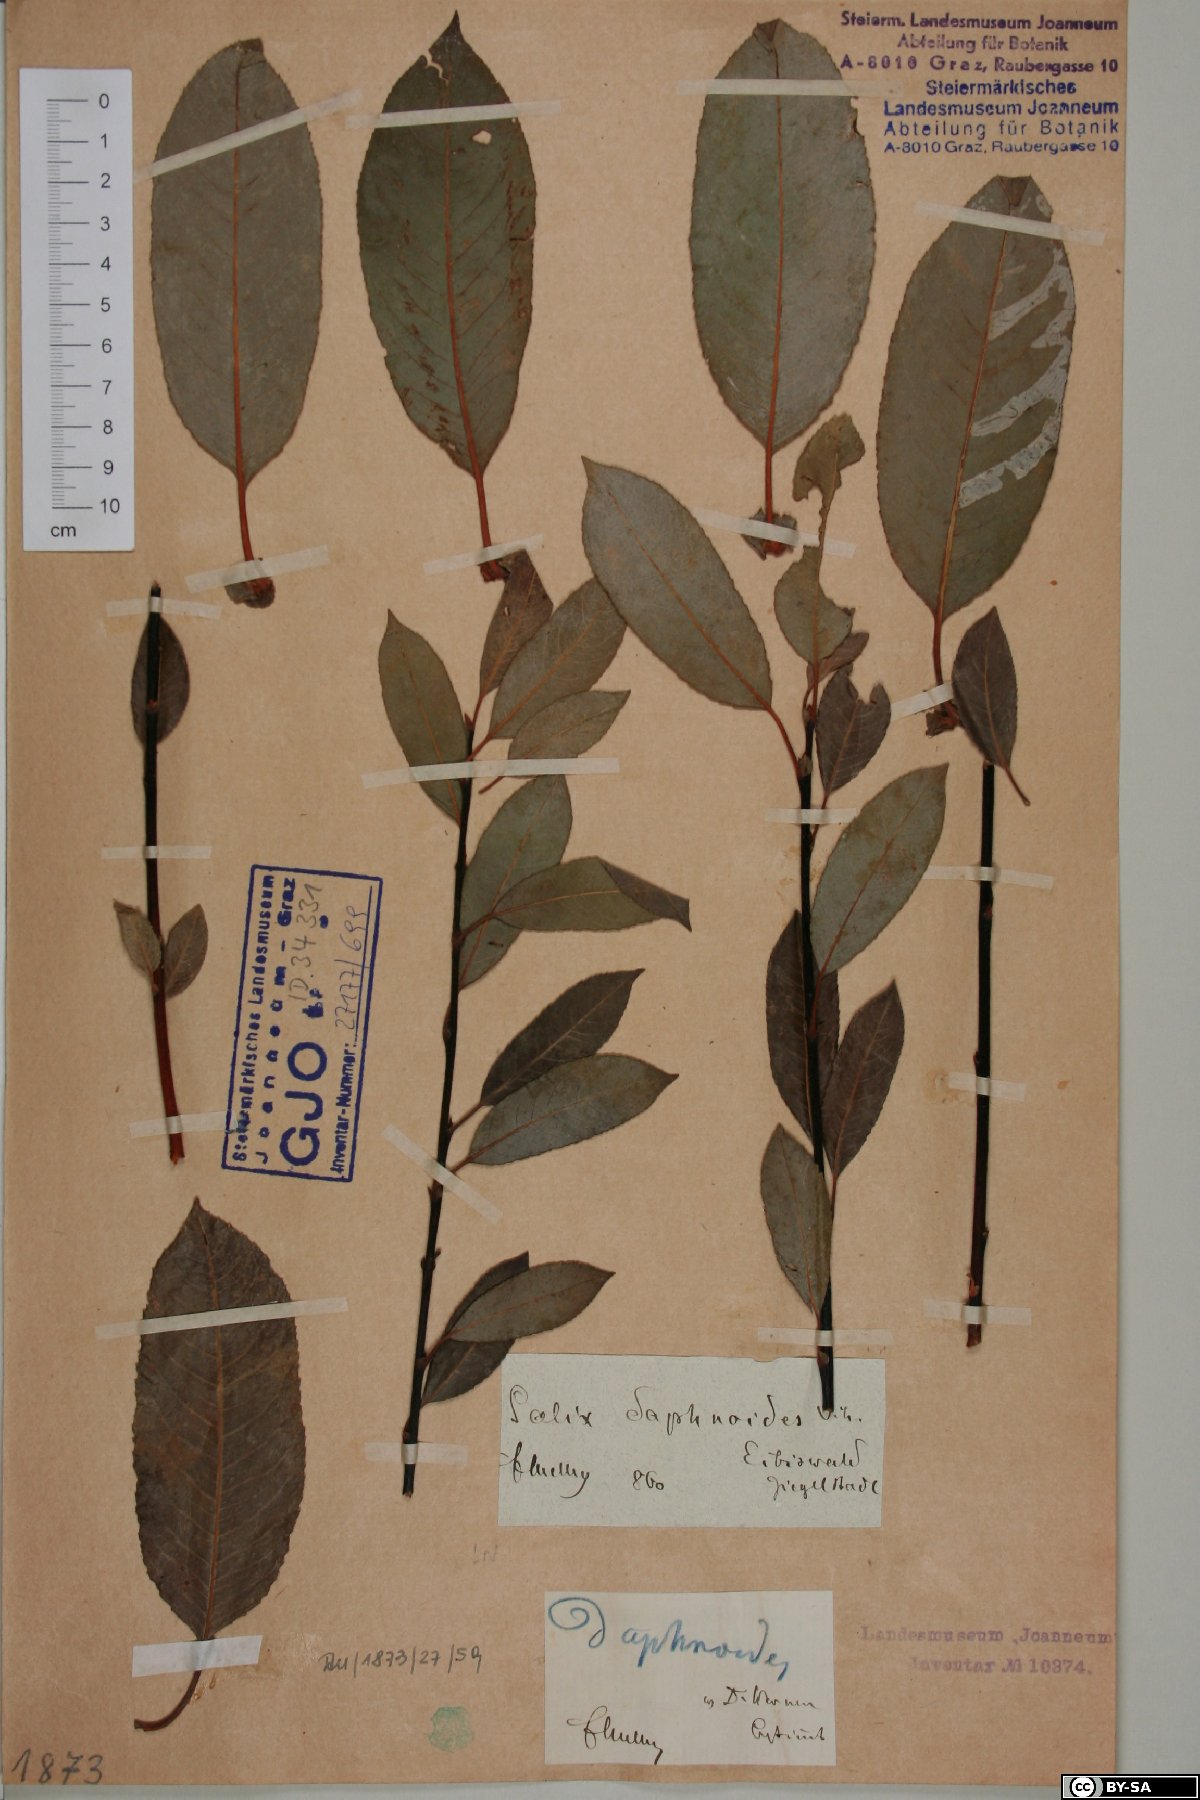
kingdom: Plantae
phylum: Tracheophyta
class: Magnoliopsida
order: Malpighiales
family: Salicaceae
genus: Salix
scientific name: Salix daphnoides
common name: European violet-willow
